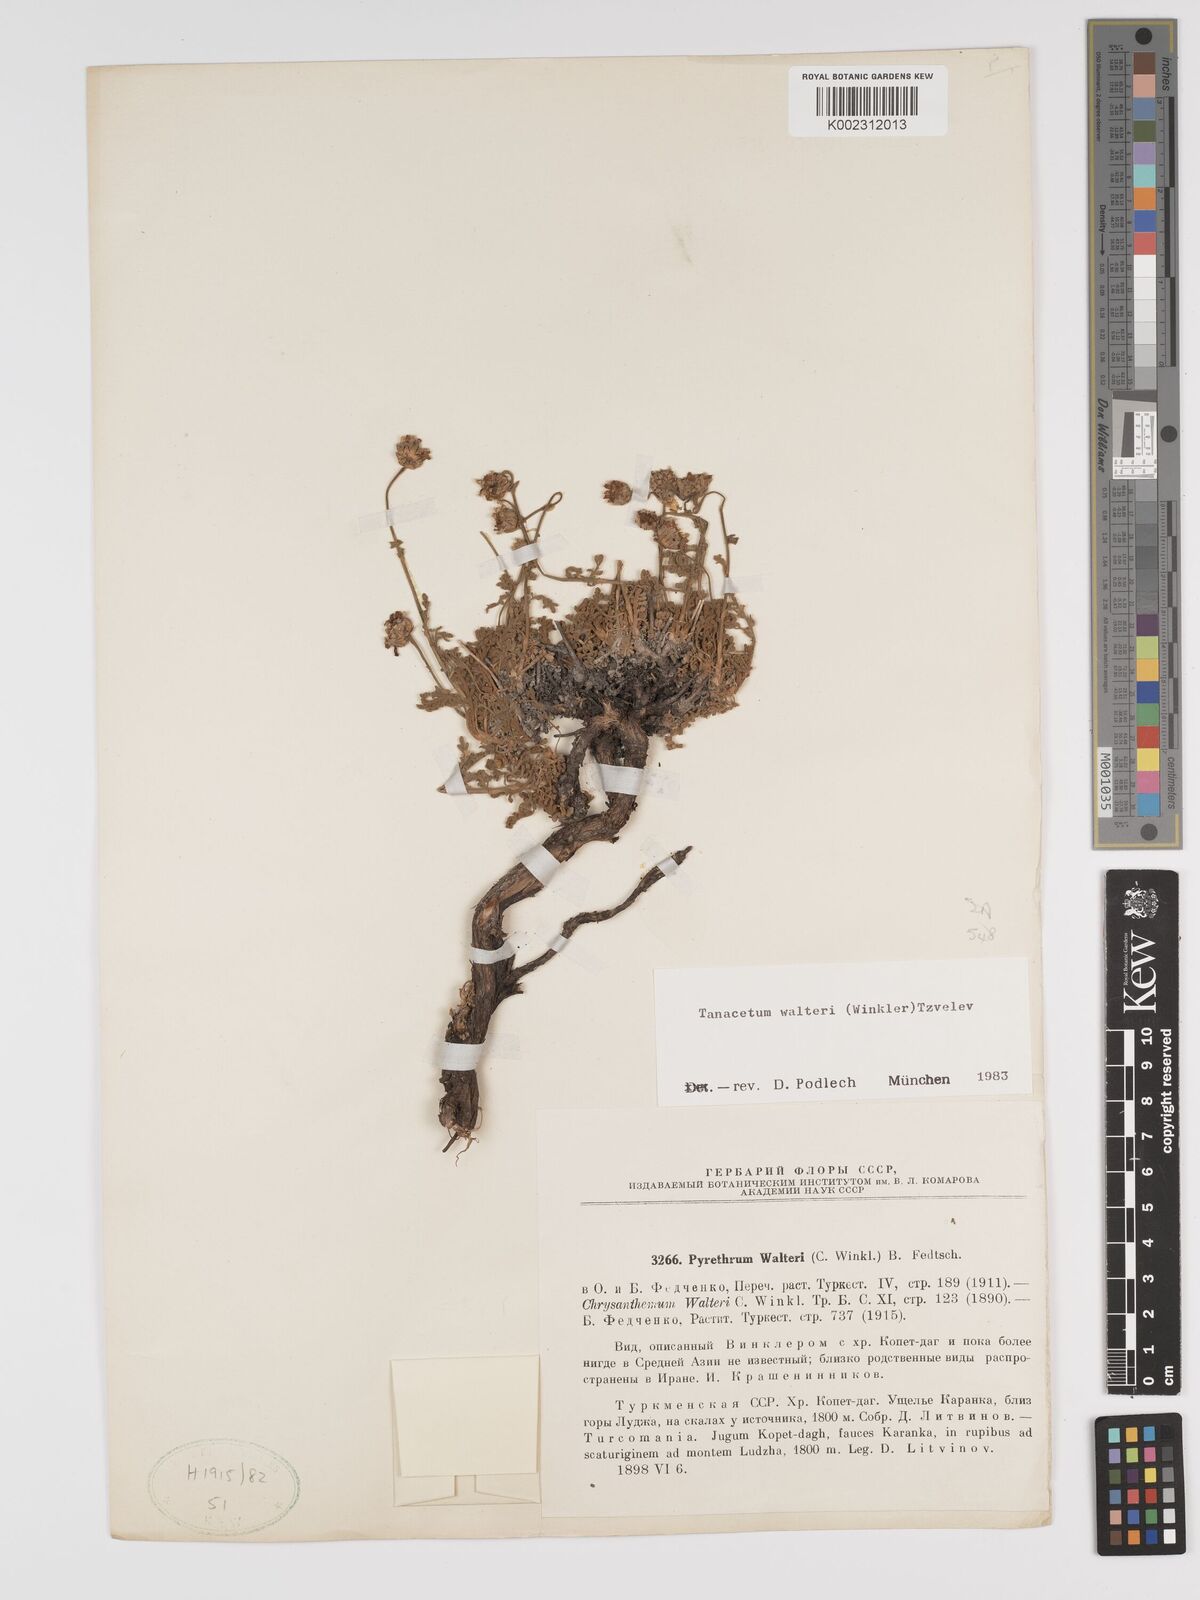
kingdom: Plantae
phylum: Tracheophyta
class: Magnoliopsida
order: Asterales
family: Asteraceae
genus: Tanacetum
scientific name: Tanacetum walteri
